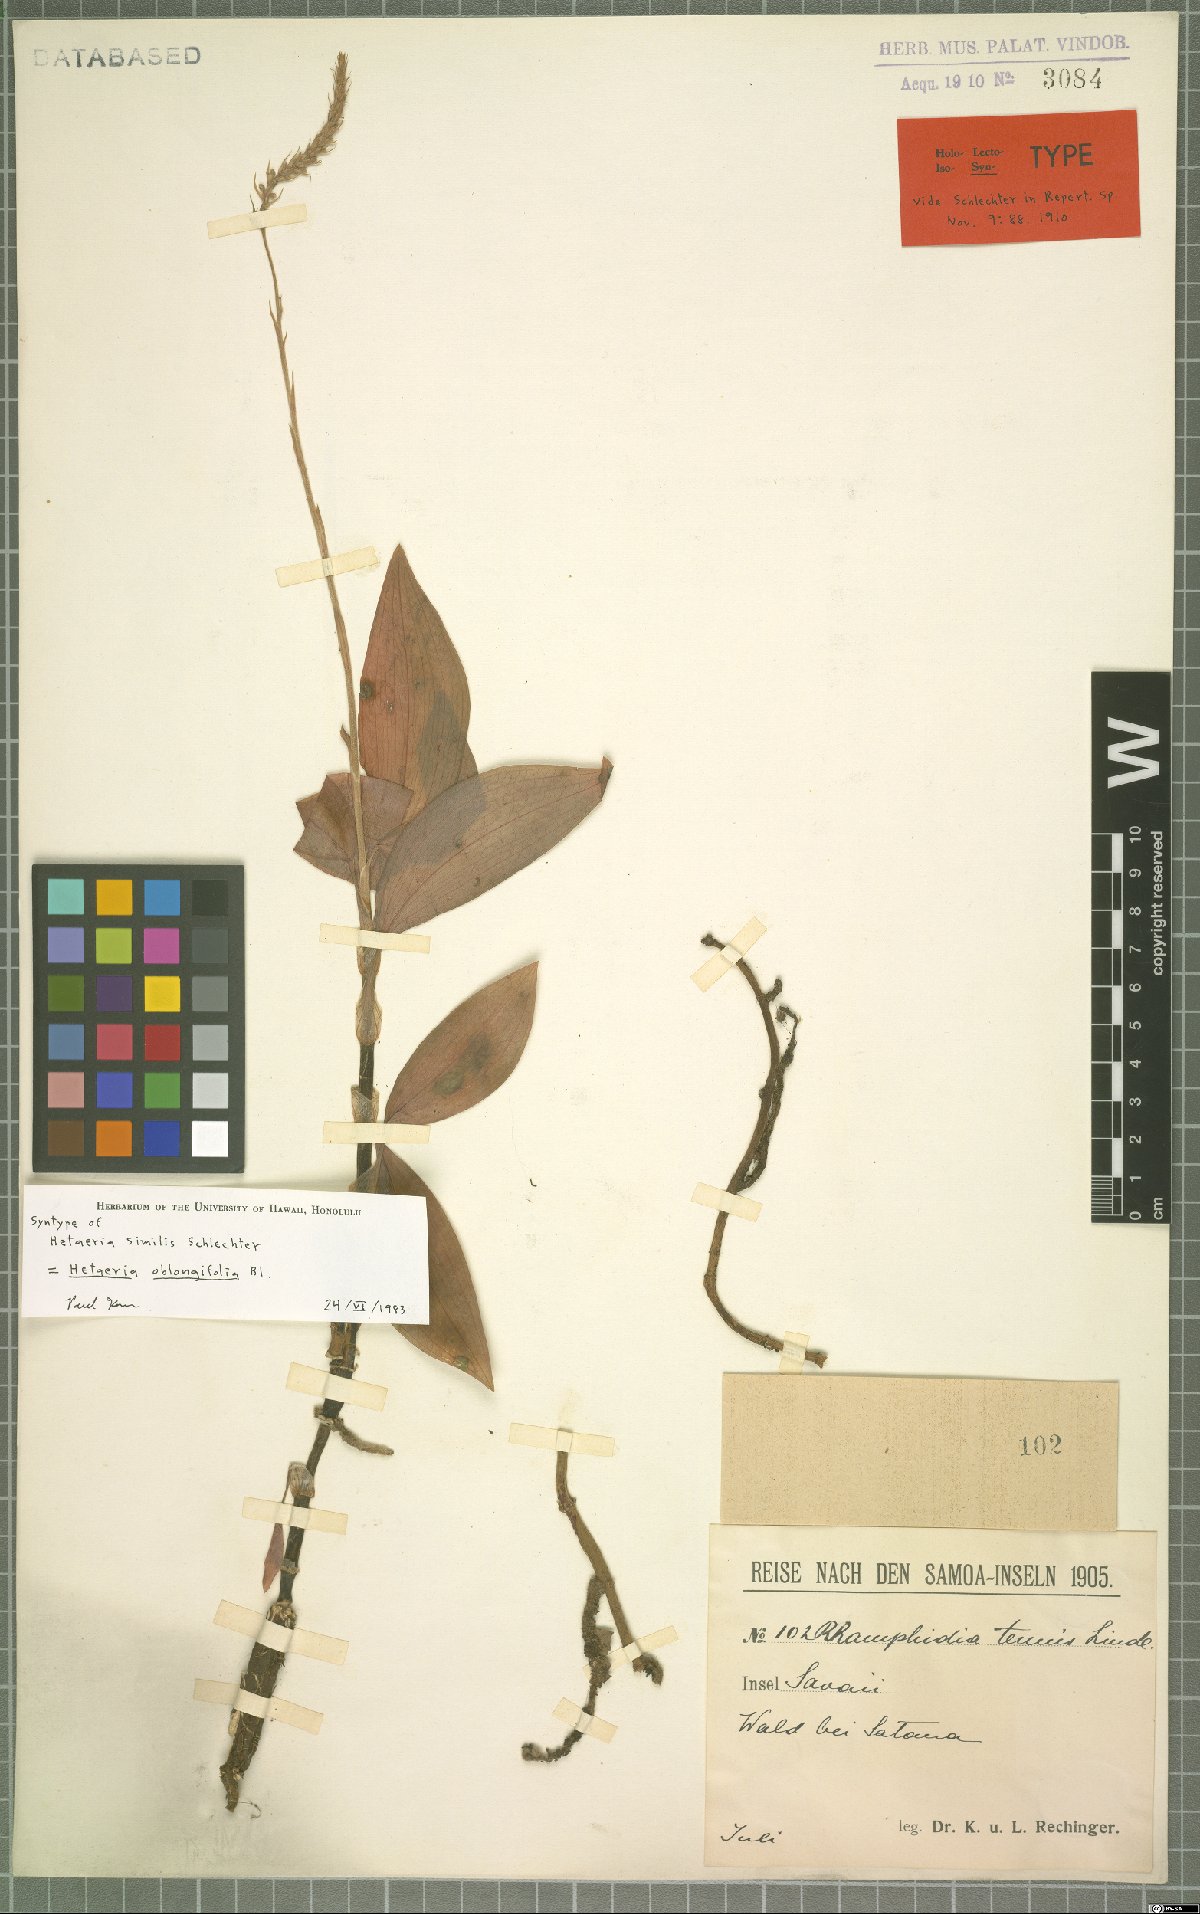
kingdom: Plantae
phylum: Tracheophyta
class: Liliopsida
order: Asparagales
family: Orchidaceae
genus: Hetaeria
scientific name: Hetaeria oblongifolia
